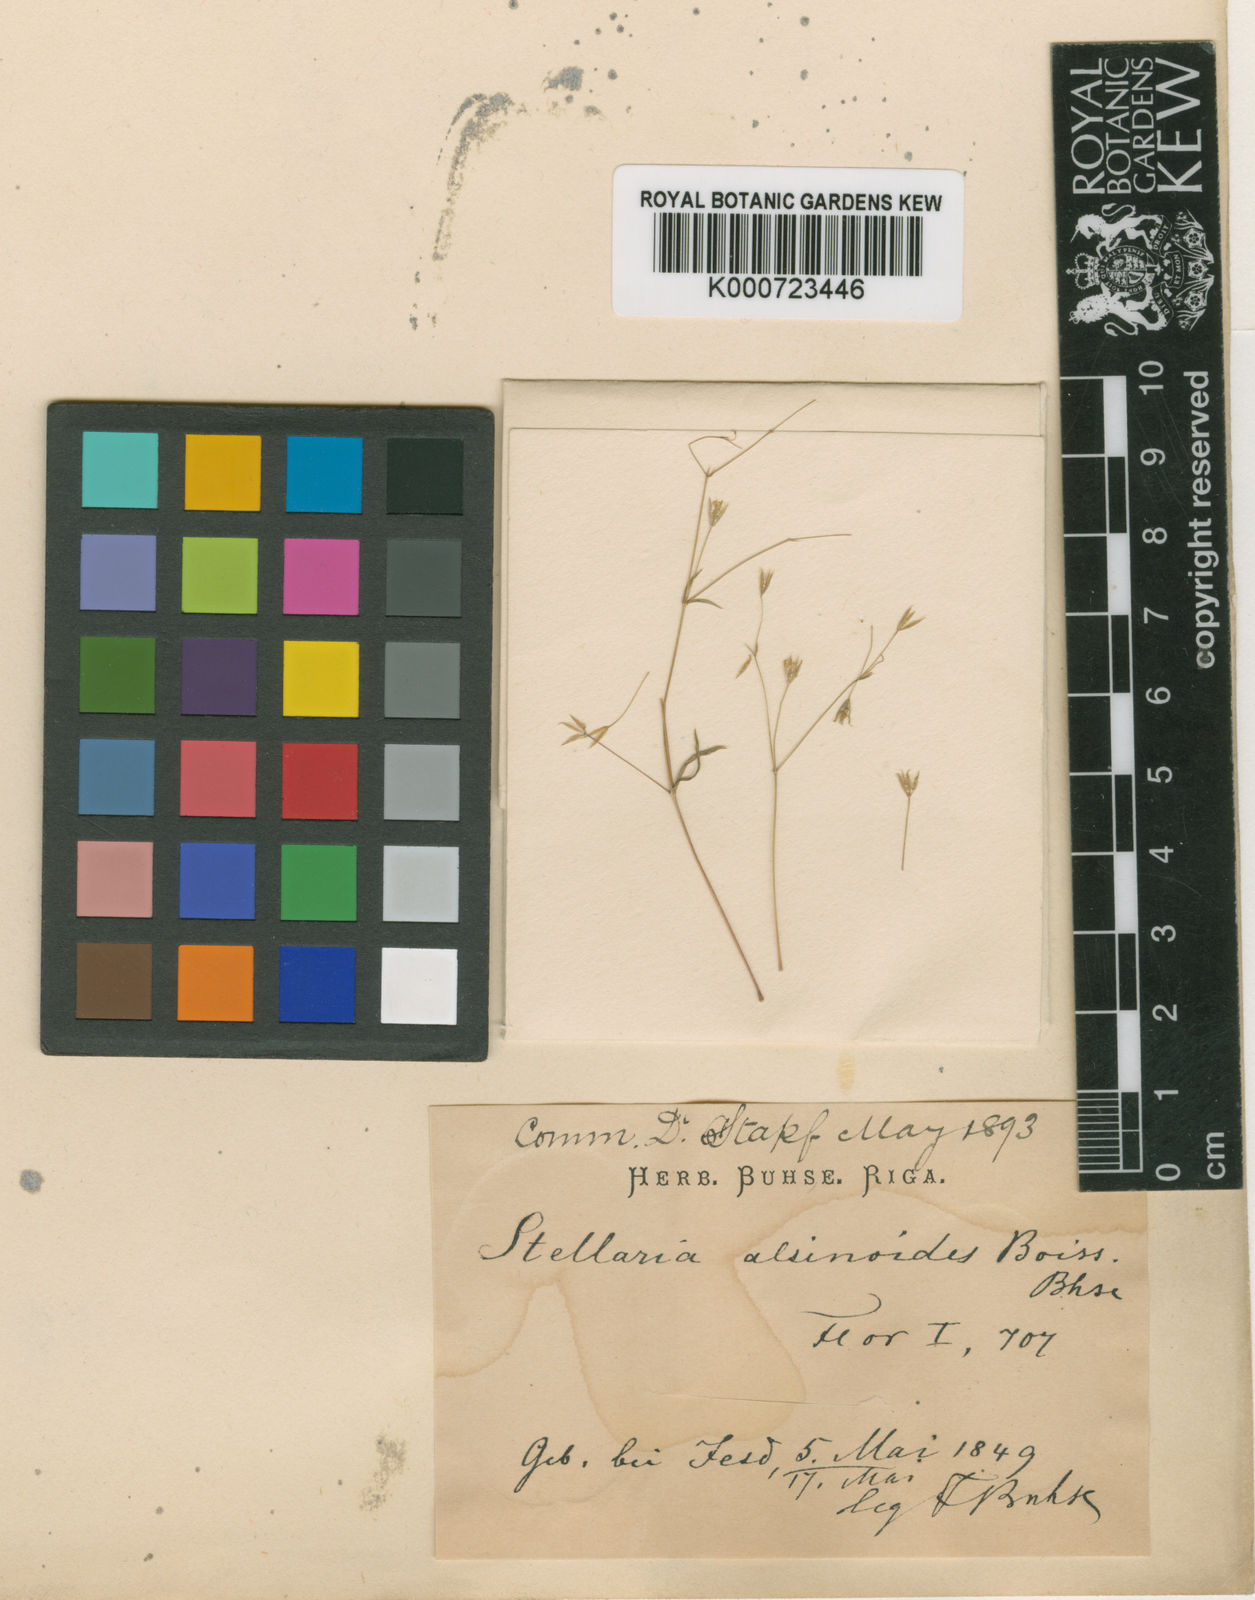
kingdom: Plantae
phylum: Tracheophyta
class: Magnoliopsida
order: Caryophyllales
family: Caryophyllaceae
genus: Stellaria
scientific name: Stellaria alsinoides
